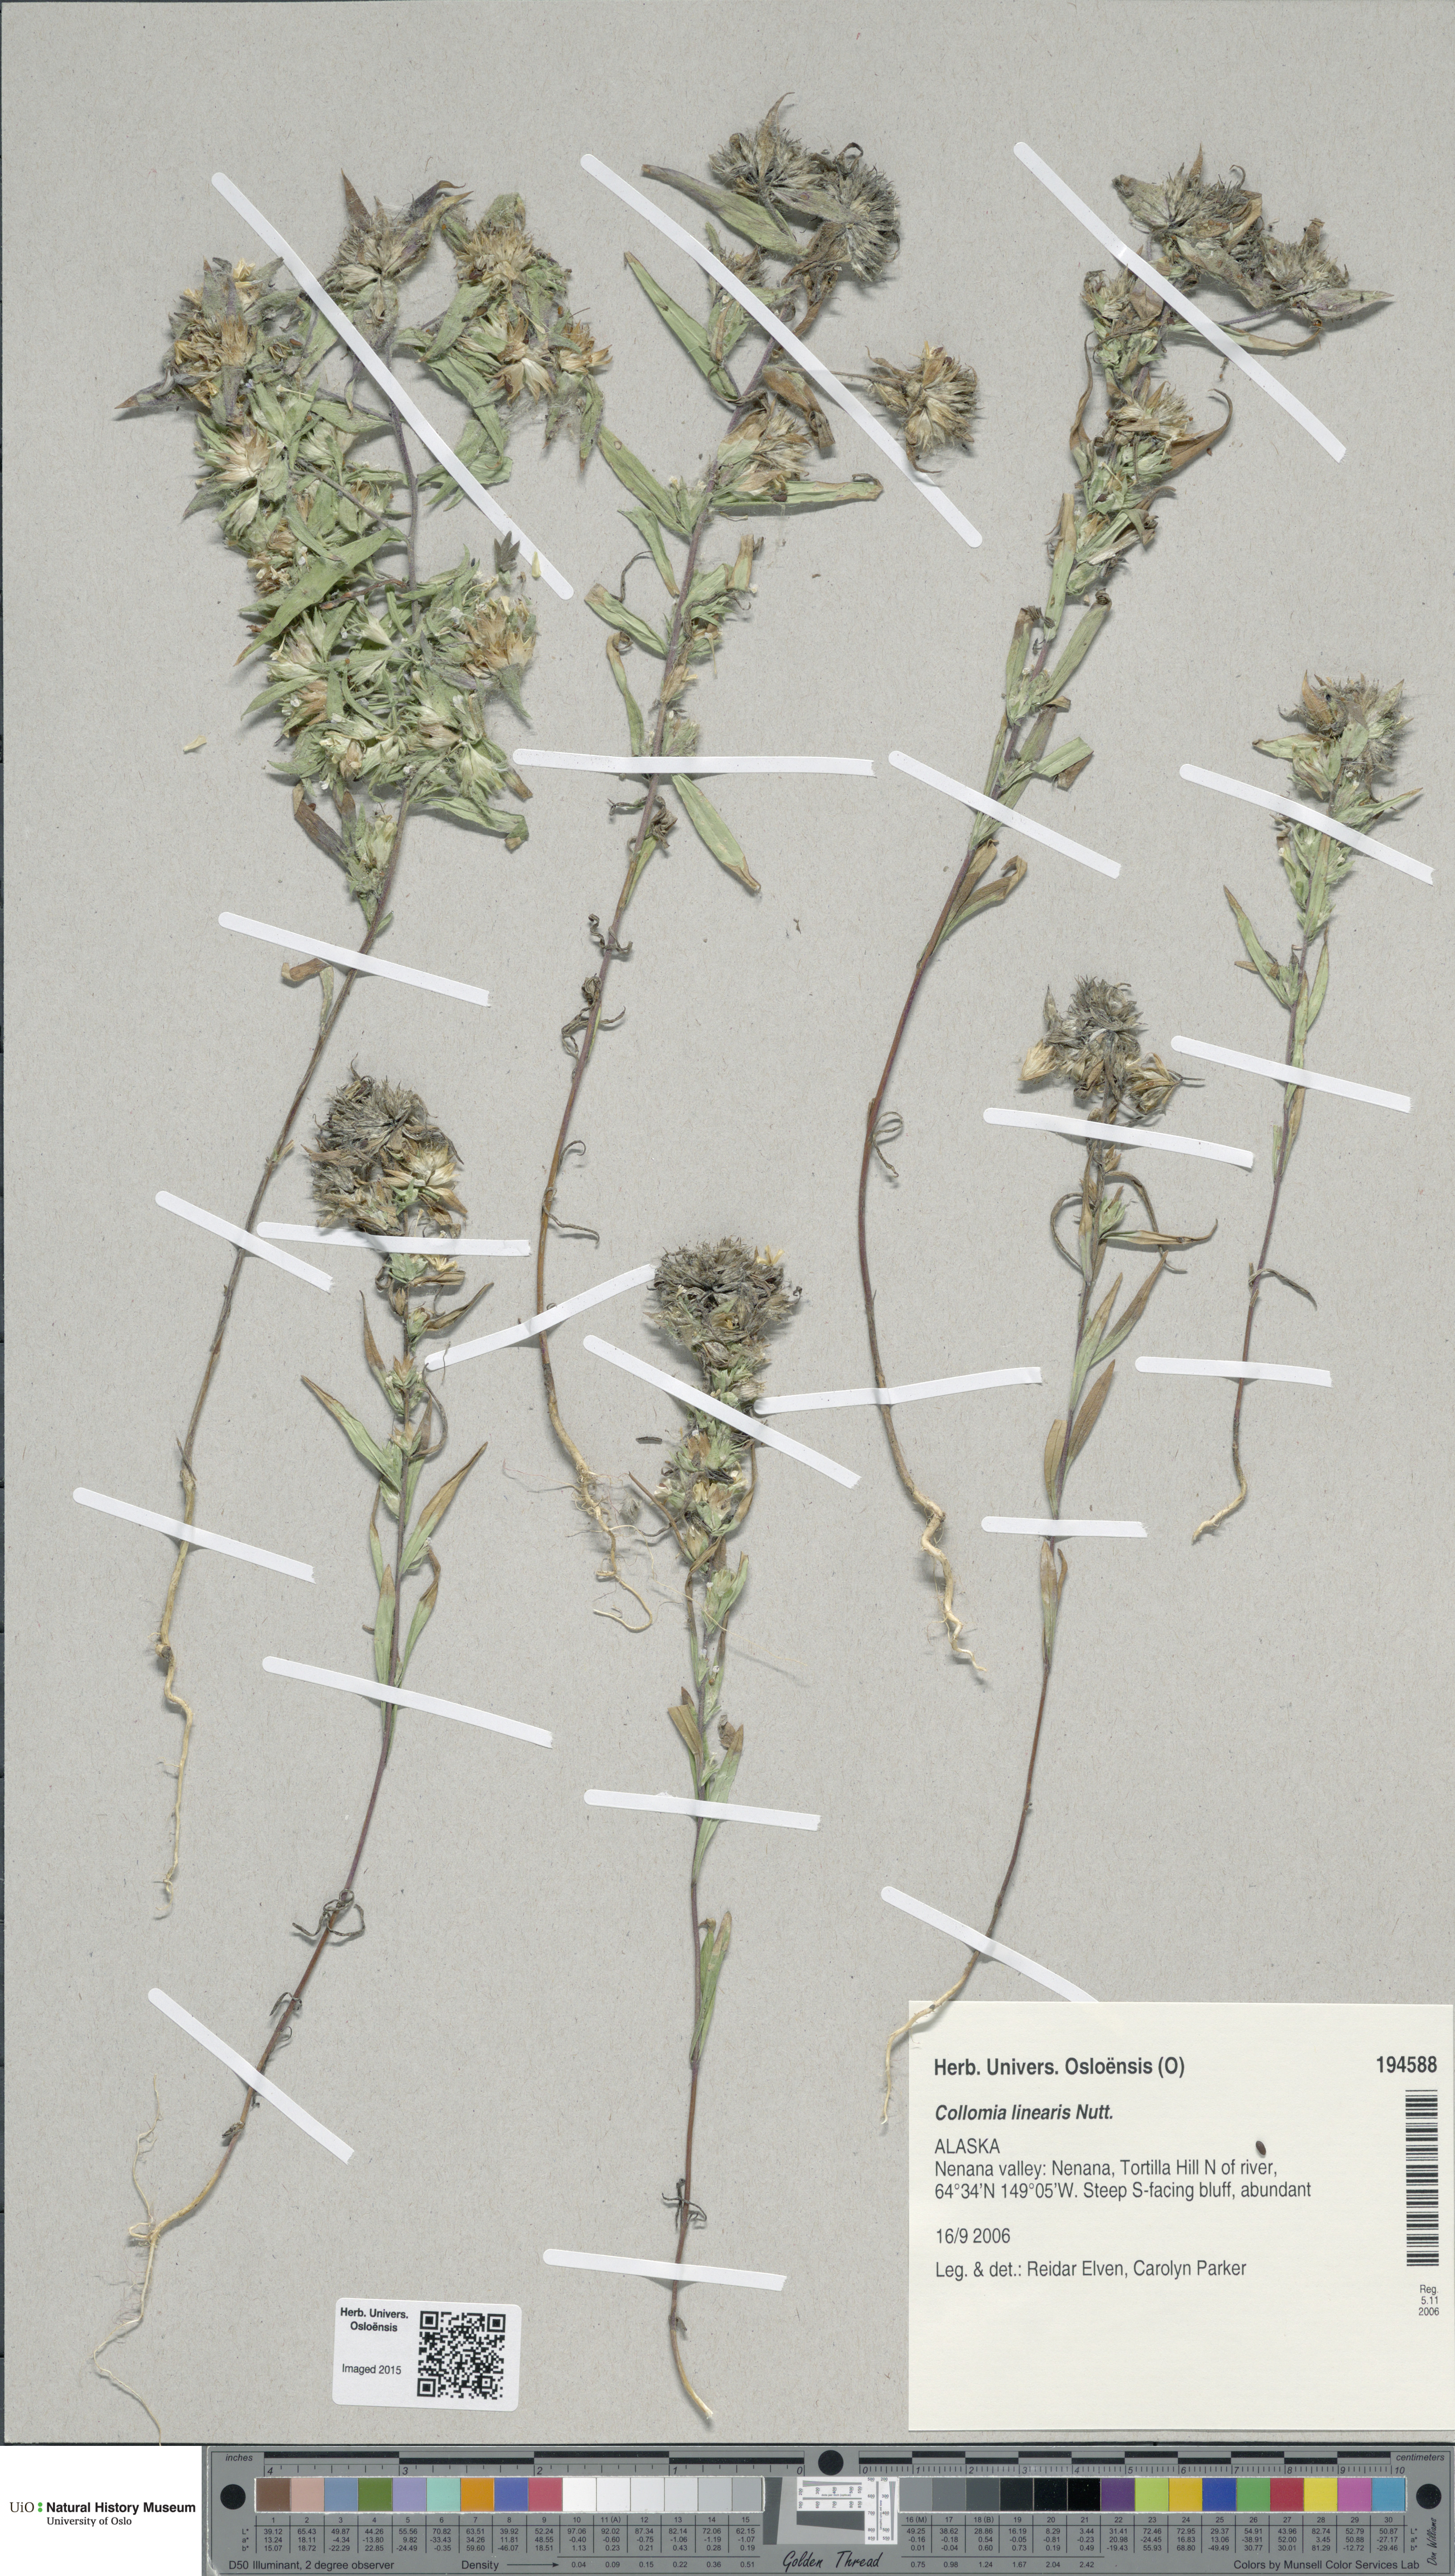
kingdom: Plantae
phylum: Tracheophyta
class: Magnoliopsida
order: Ericales
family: Polemoniaceae
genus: Collomia
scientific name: Collomia linearis
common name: Tiny trumpet
